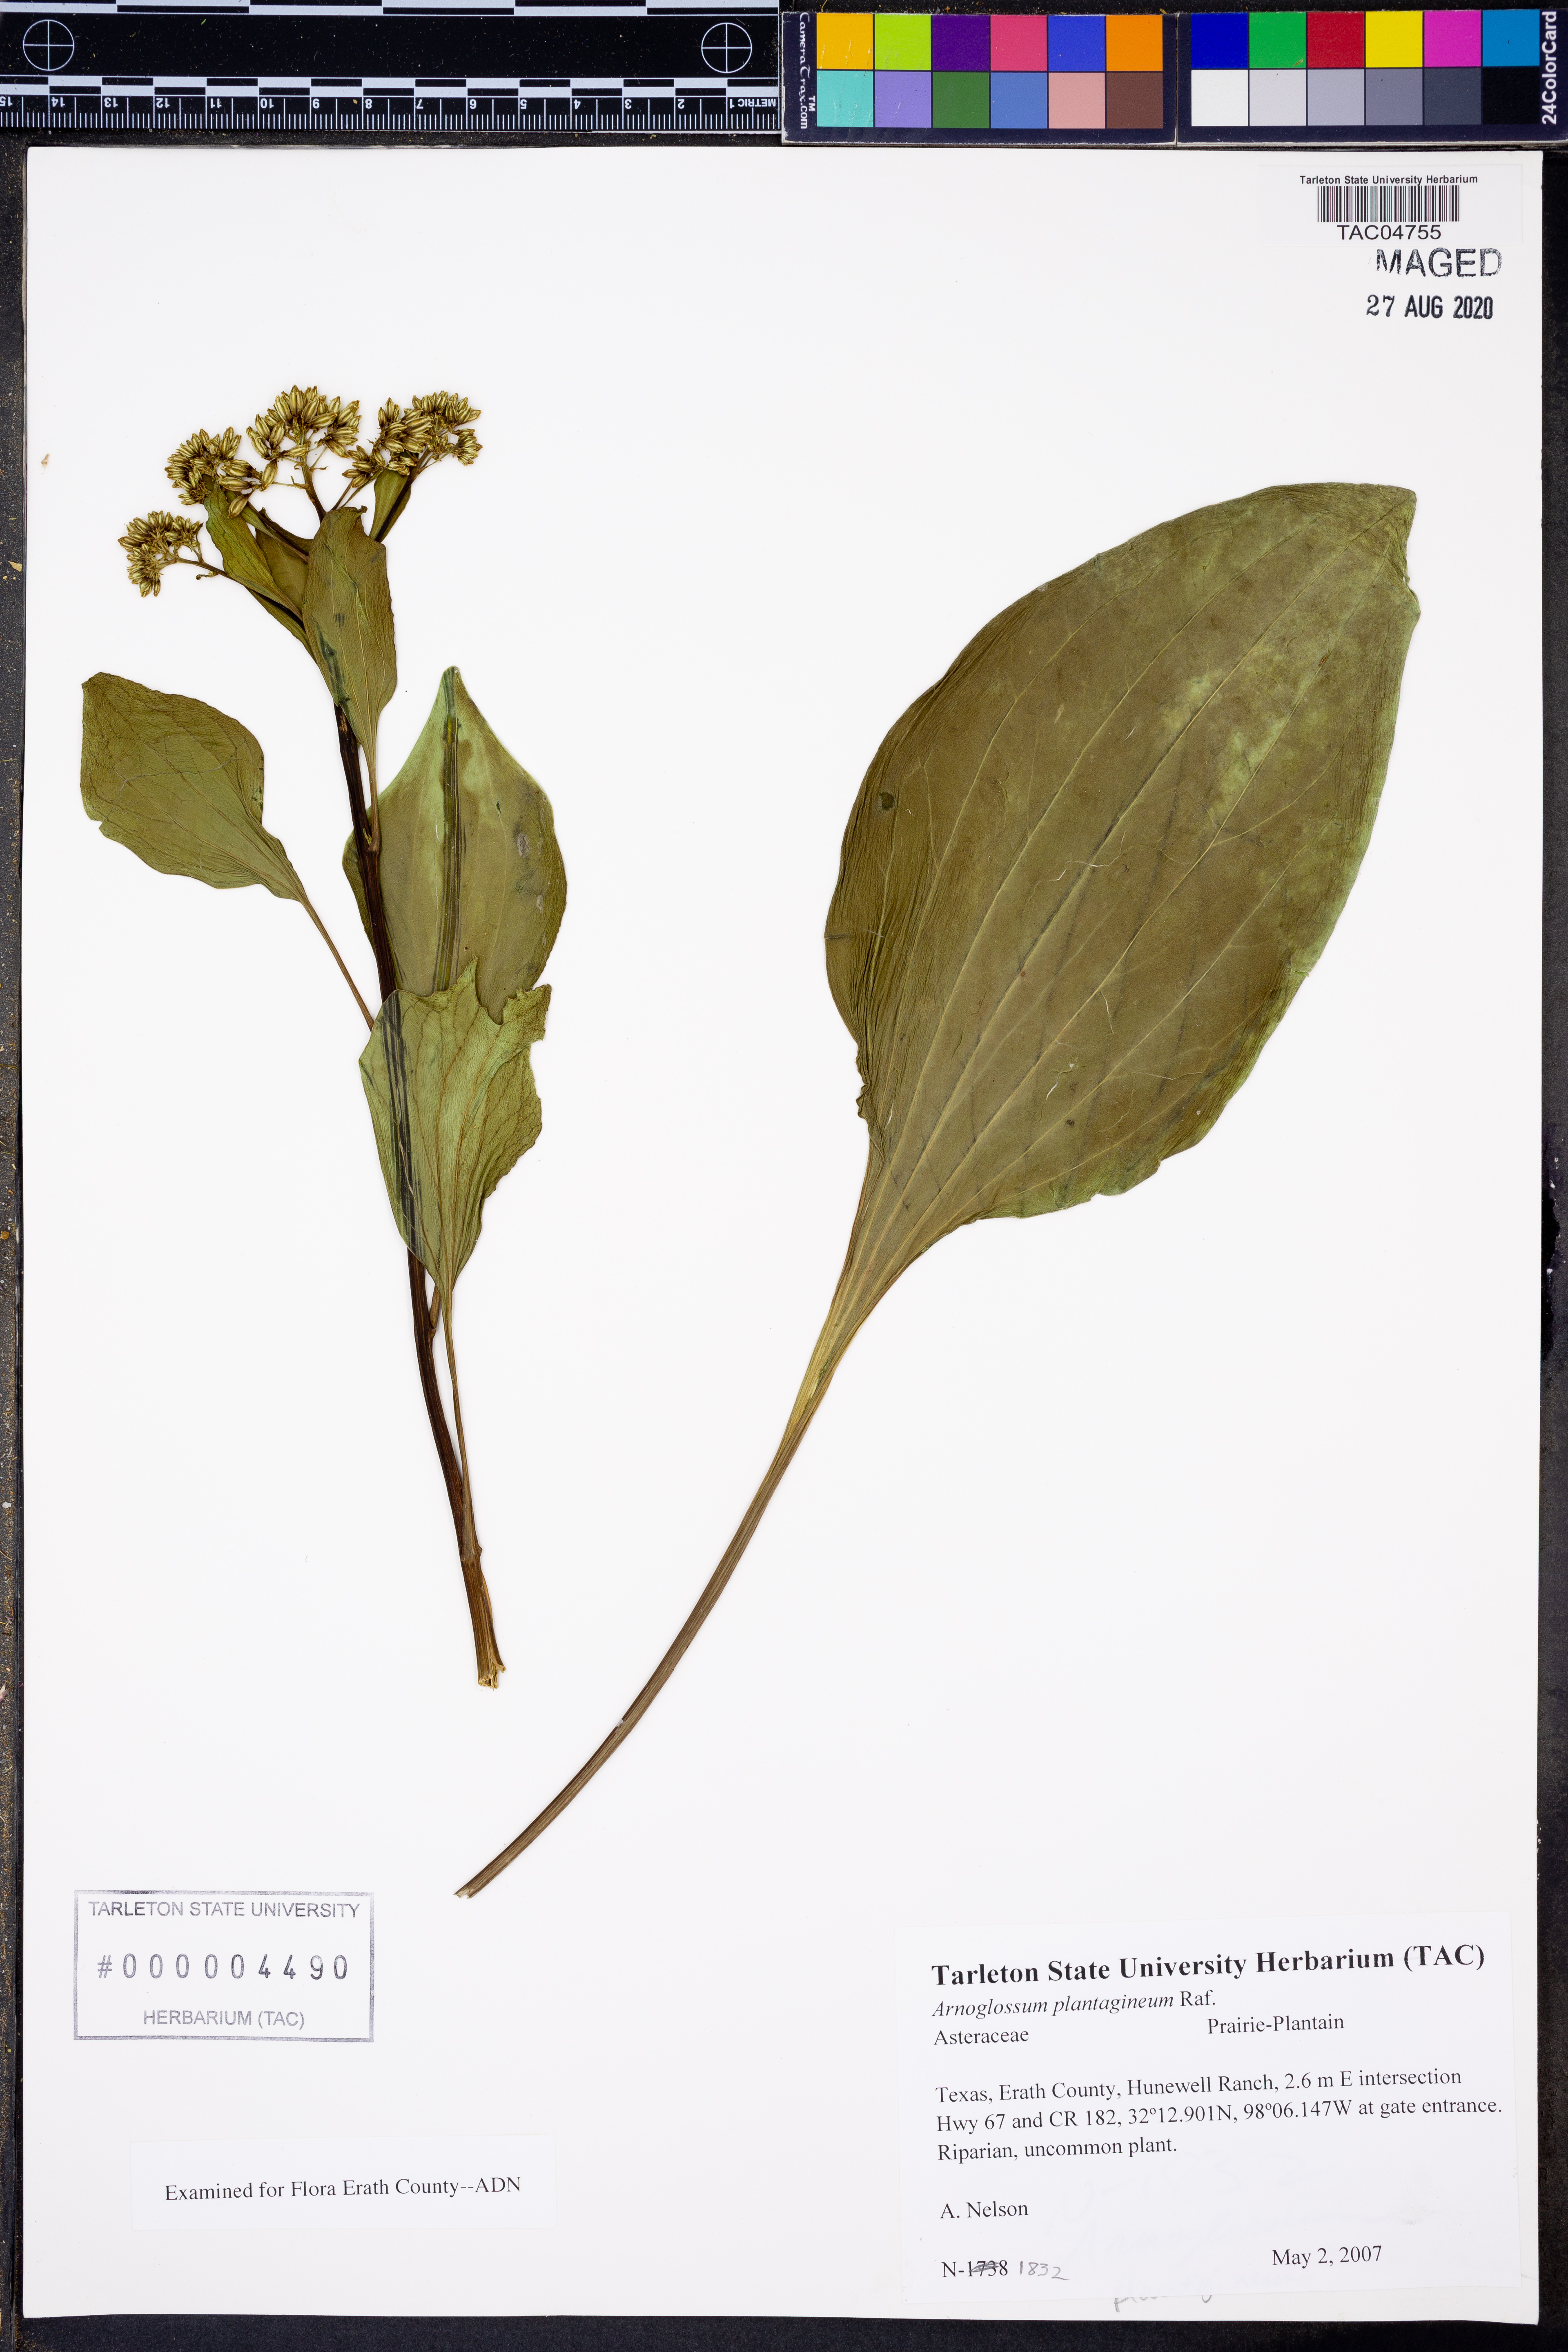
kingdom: Plantae
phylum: Tracheophyta
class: Magnoliopsida
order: Asterales
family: Asteraceae
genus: Arnoglossum
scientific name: Arnoglossum plantagineum
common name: Groove-stemmed indian-plantain
